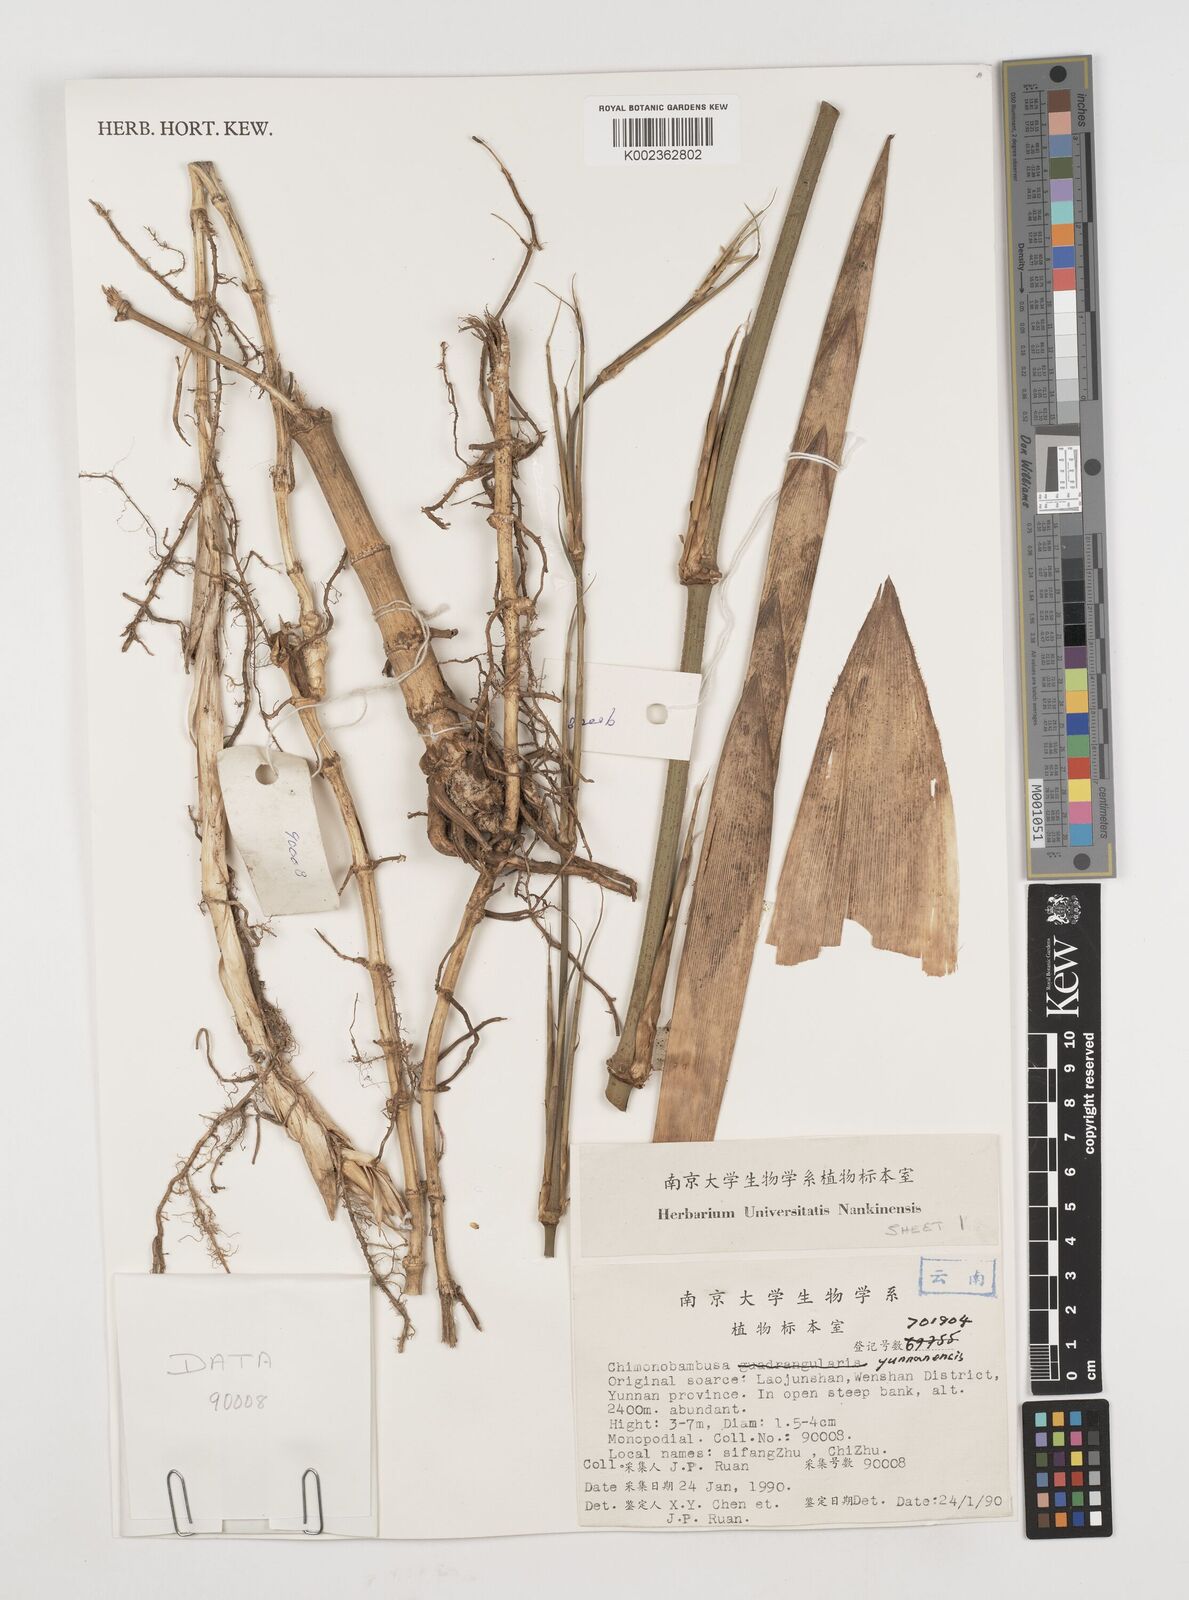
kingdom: Plantae
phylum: Tracheophyta
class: Liliopsida
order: Poales
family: Poaceae
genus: Chimonobambusa
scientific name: Chimonobambusa ningnanica
